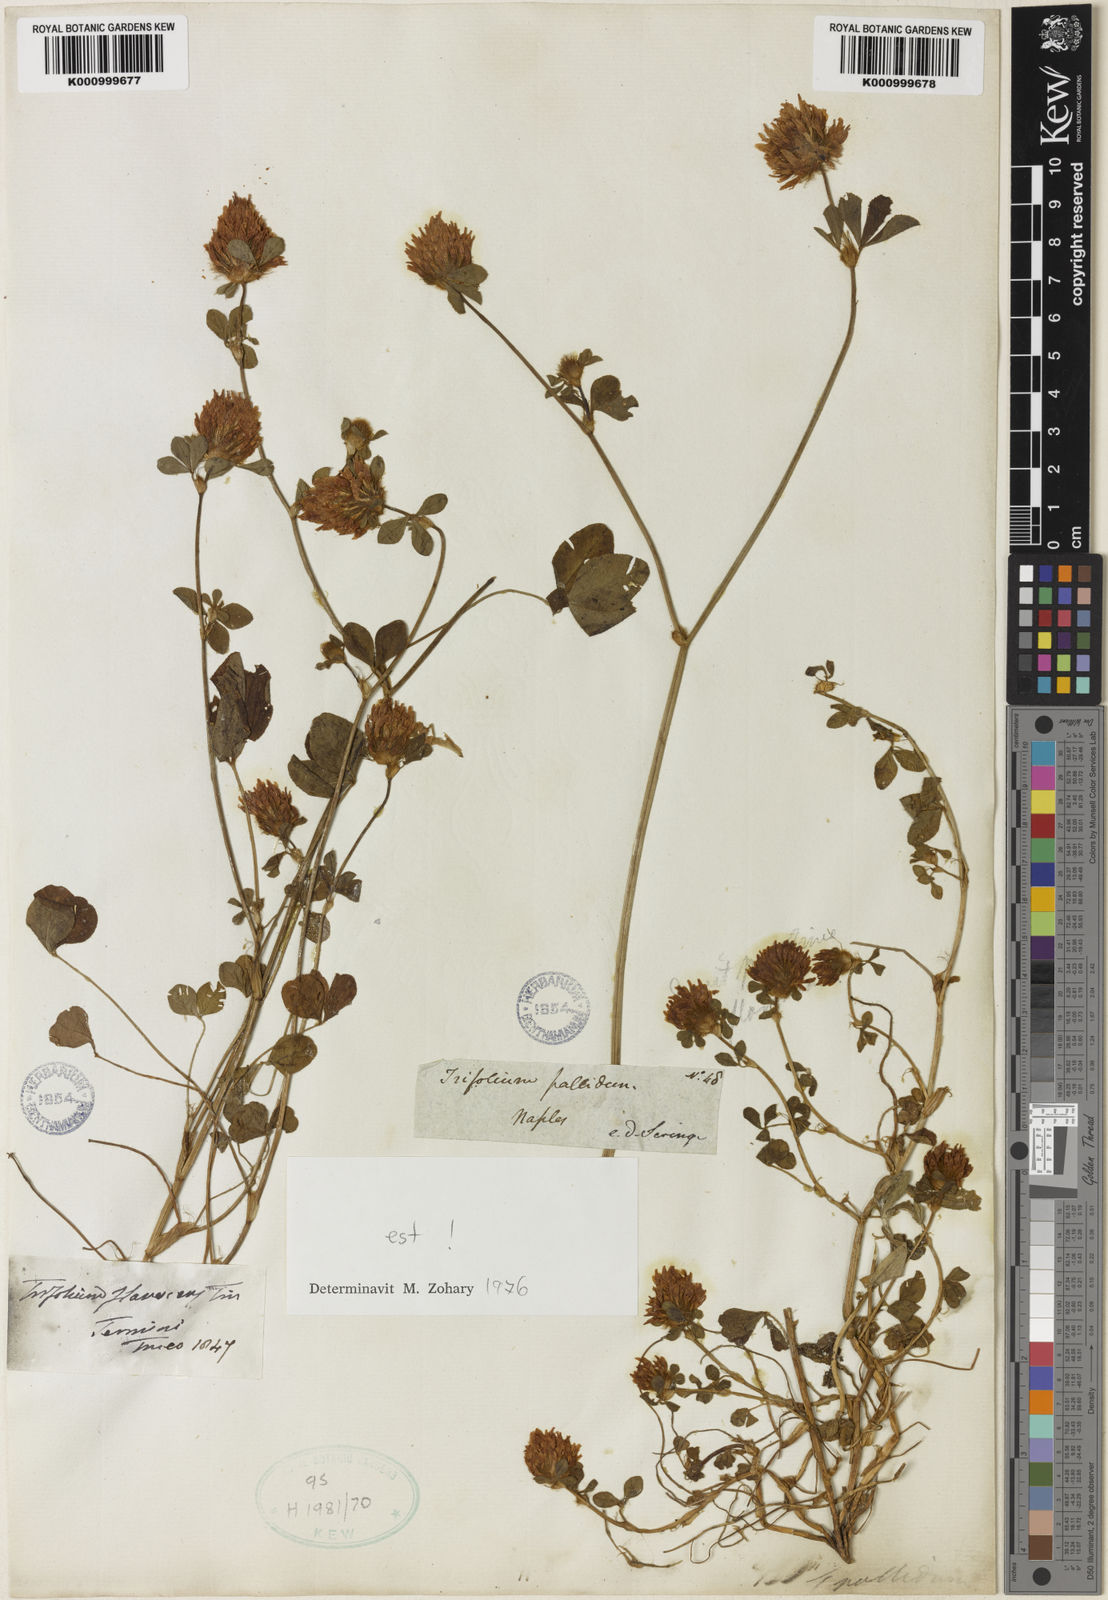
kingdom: Plantae
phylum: Tracheophyta
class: Magnoliopsida
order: Fabales
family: Fabaceae
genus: Trifolium
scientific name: Trifolium pallidum
